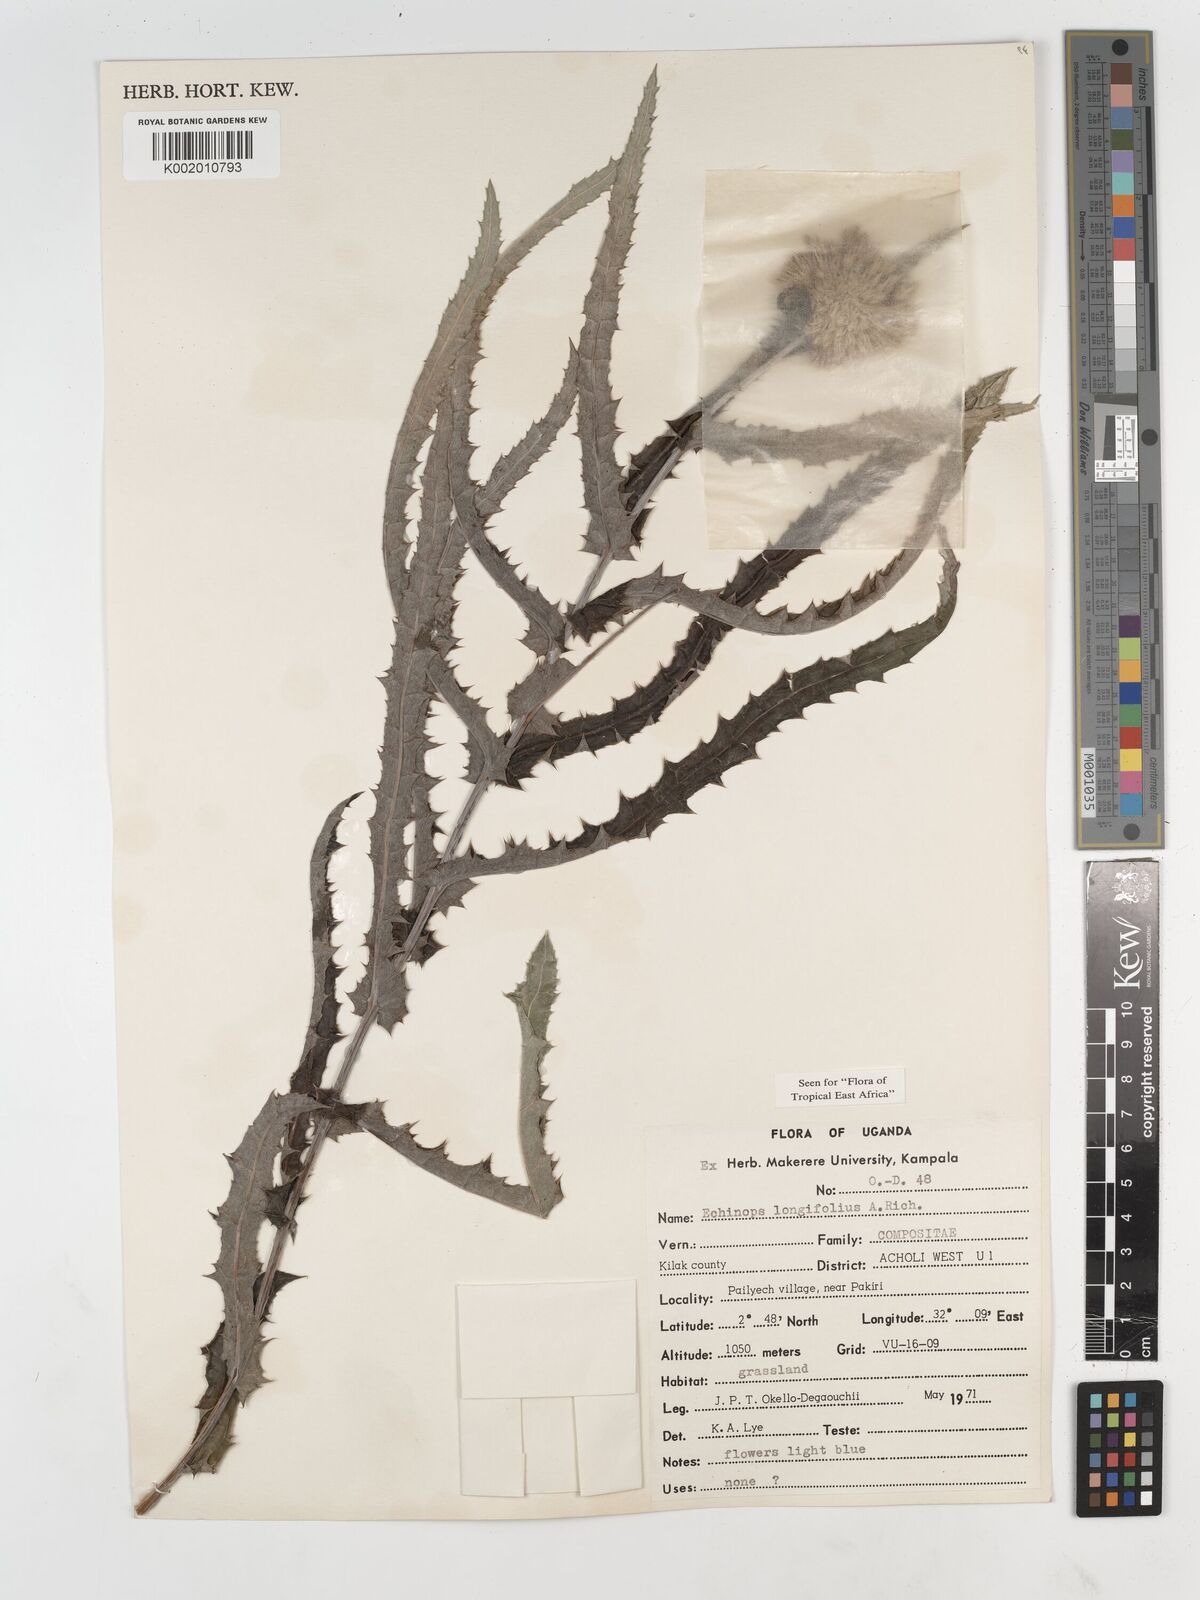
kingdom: Plantae
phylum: Tracheophyta
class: Magnoliopsida
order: Asterales
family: Asteraceae
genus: Echinops
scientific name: Echinops longifolius
